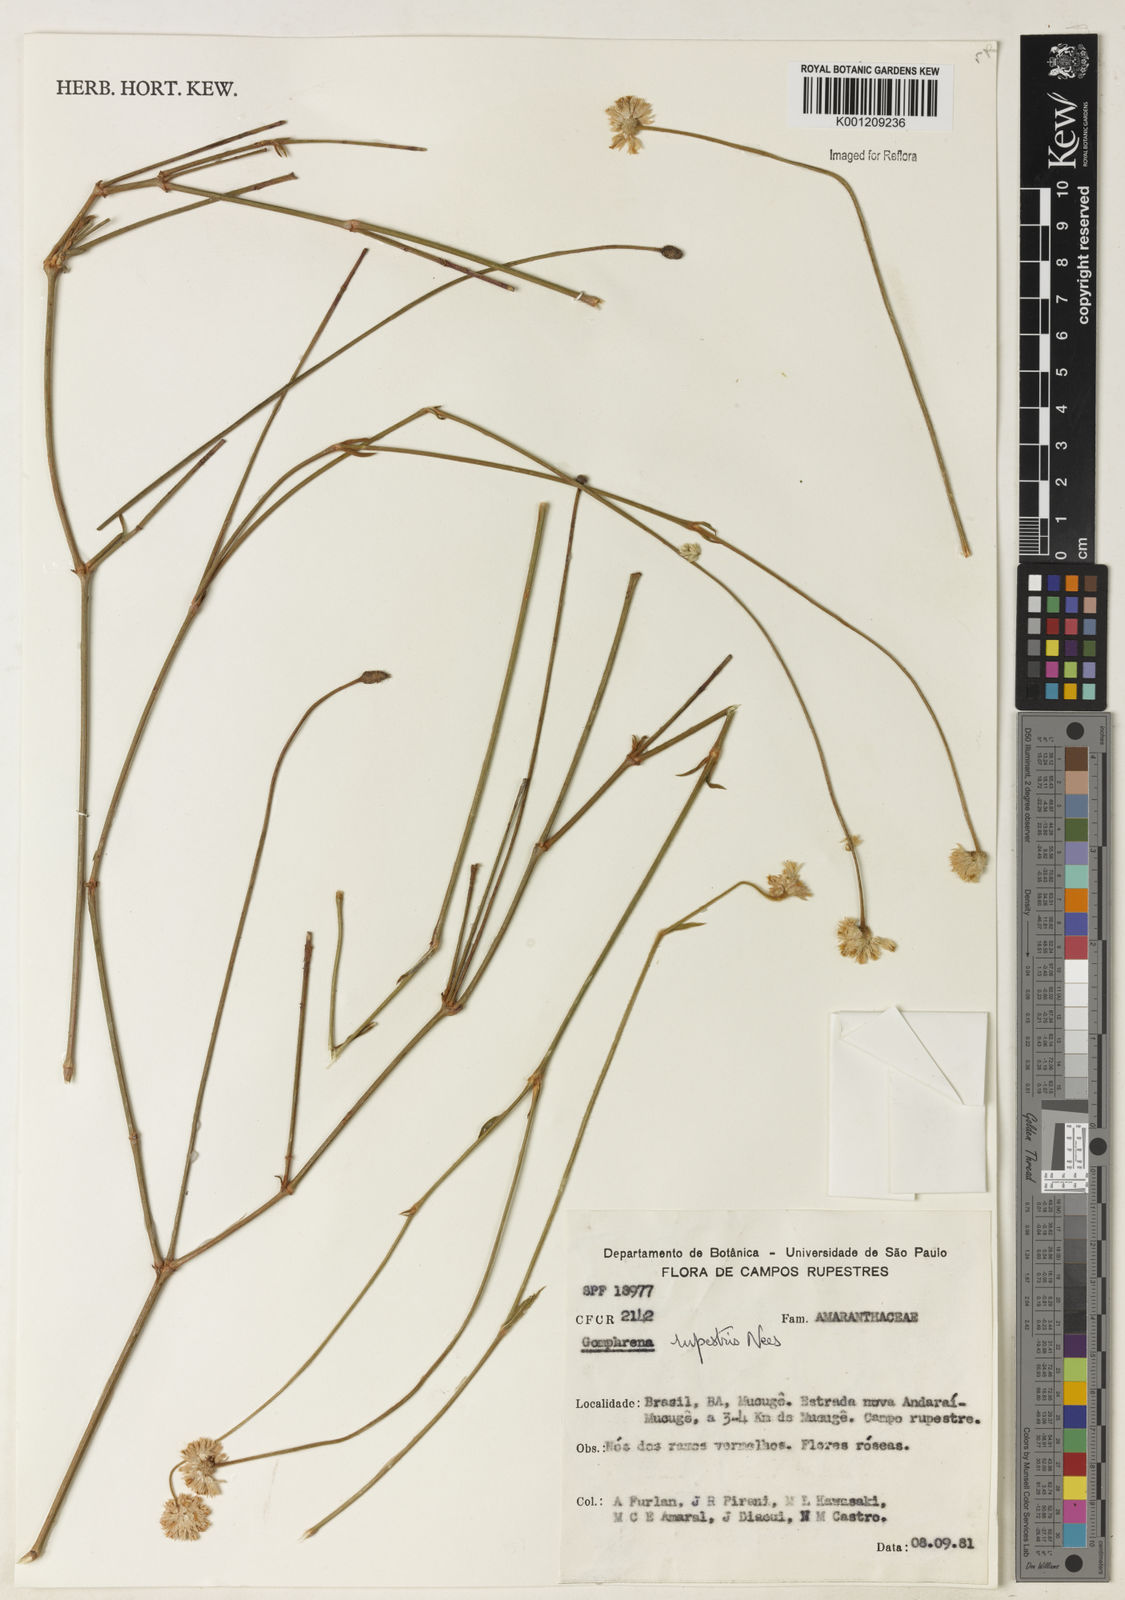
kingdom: Plantae
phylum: Tracheophyta
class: Magnoliopsida
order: Caryophyllales
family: Amaranthaceae
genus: Gomphrena
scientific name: Gomphrena rupestris
